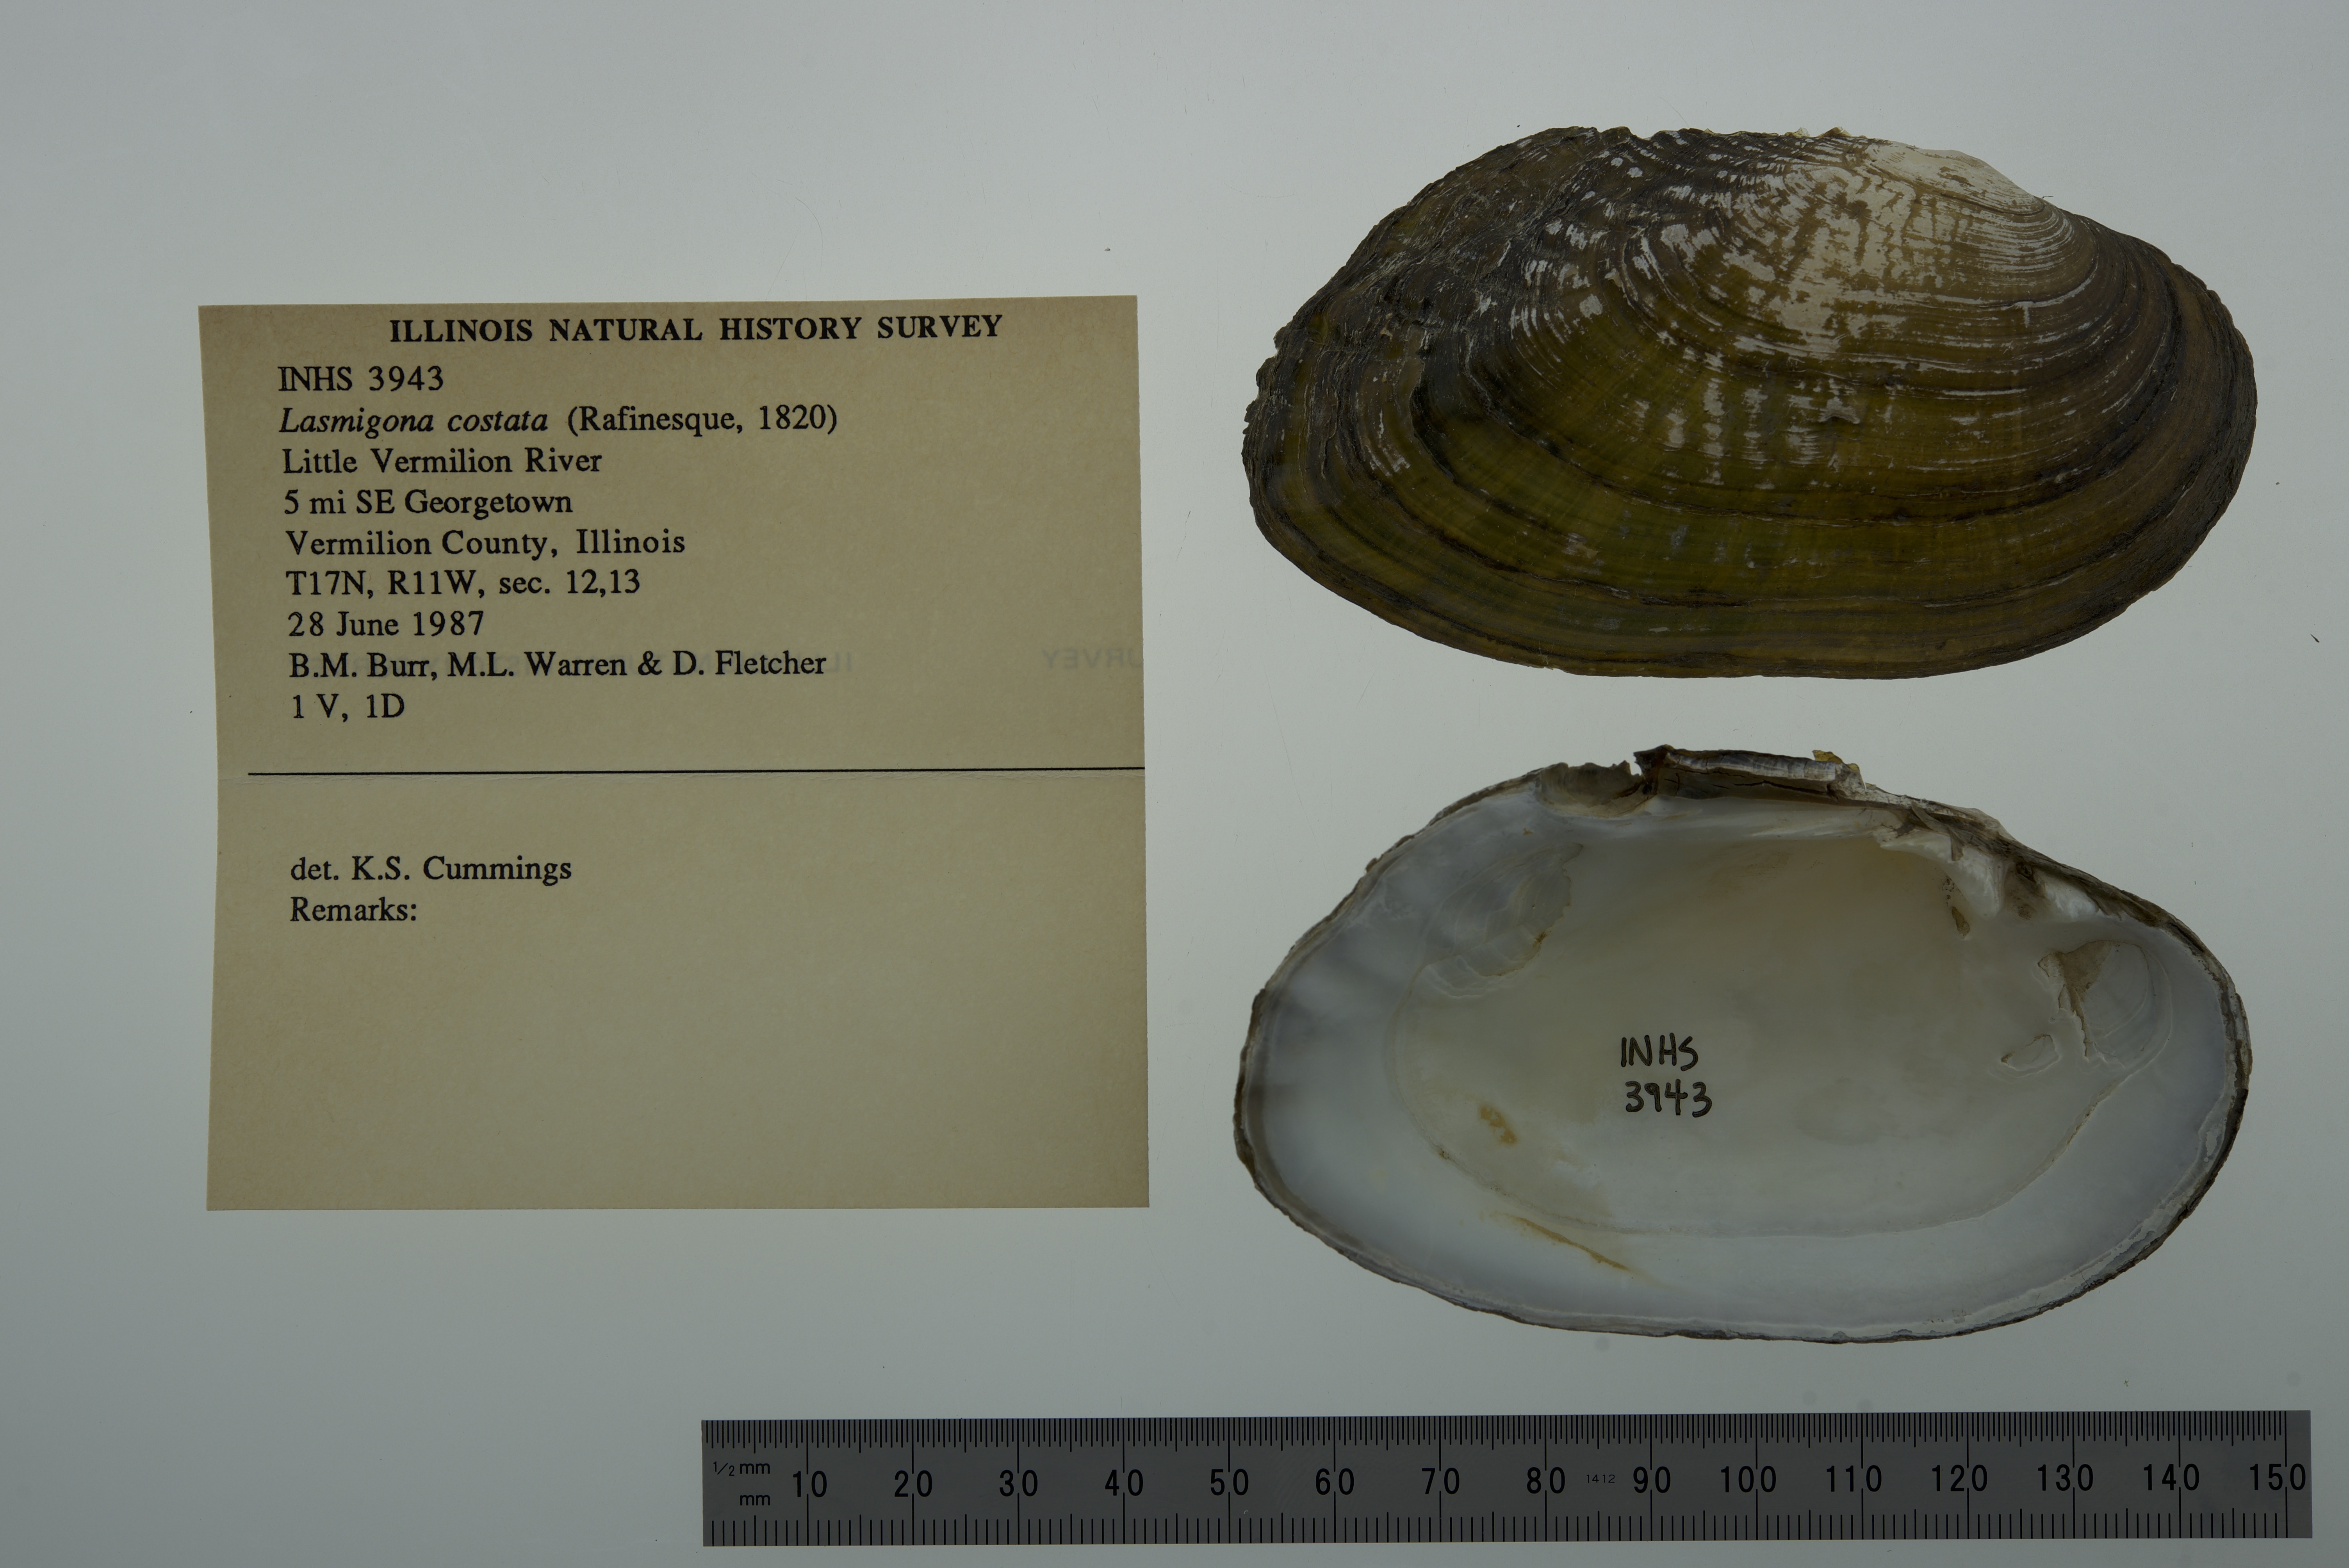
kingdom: Animalia
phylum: Mollusca
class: Bivalvia
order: Unionida
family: Unionidae
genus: Lasmigona
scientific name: Lasmigona costata
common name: Flutedshell
